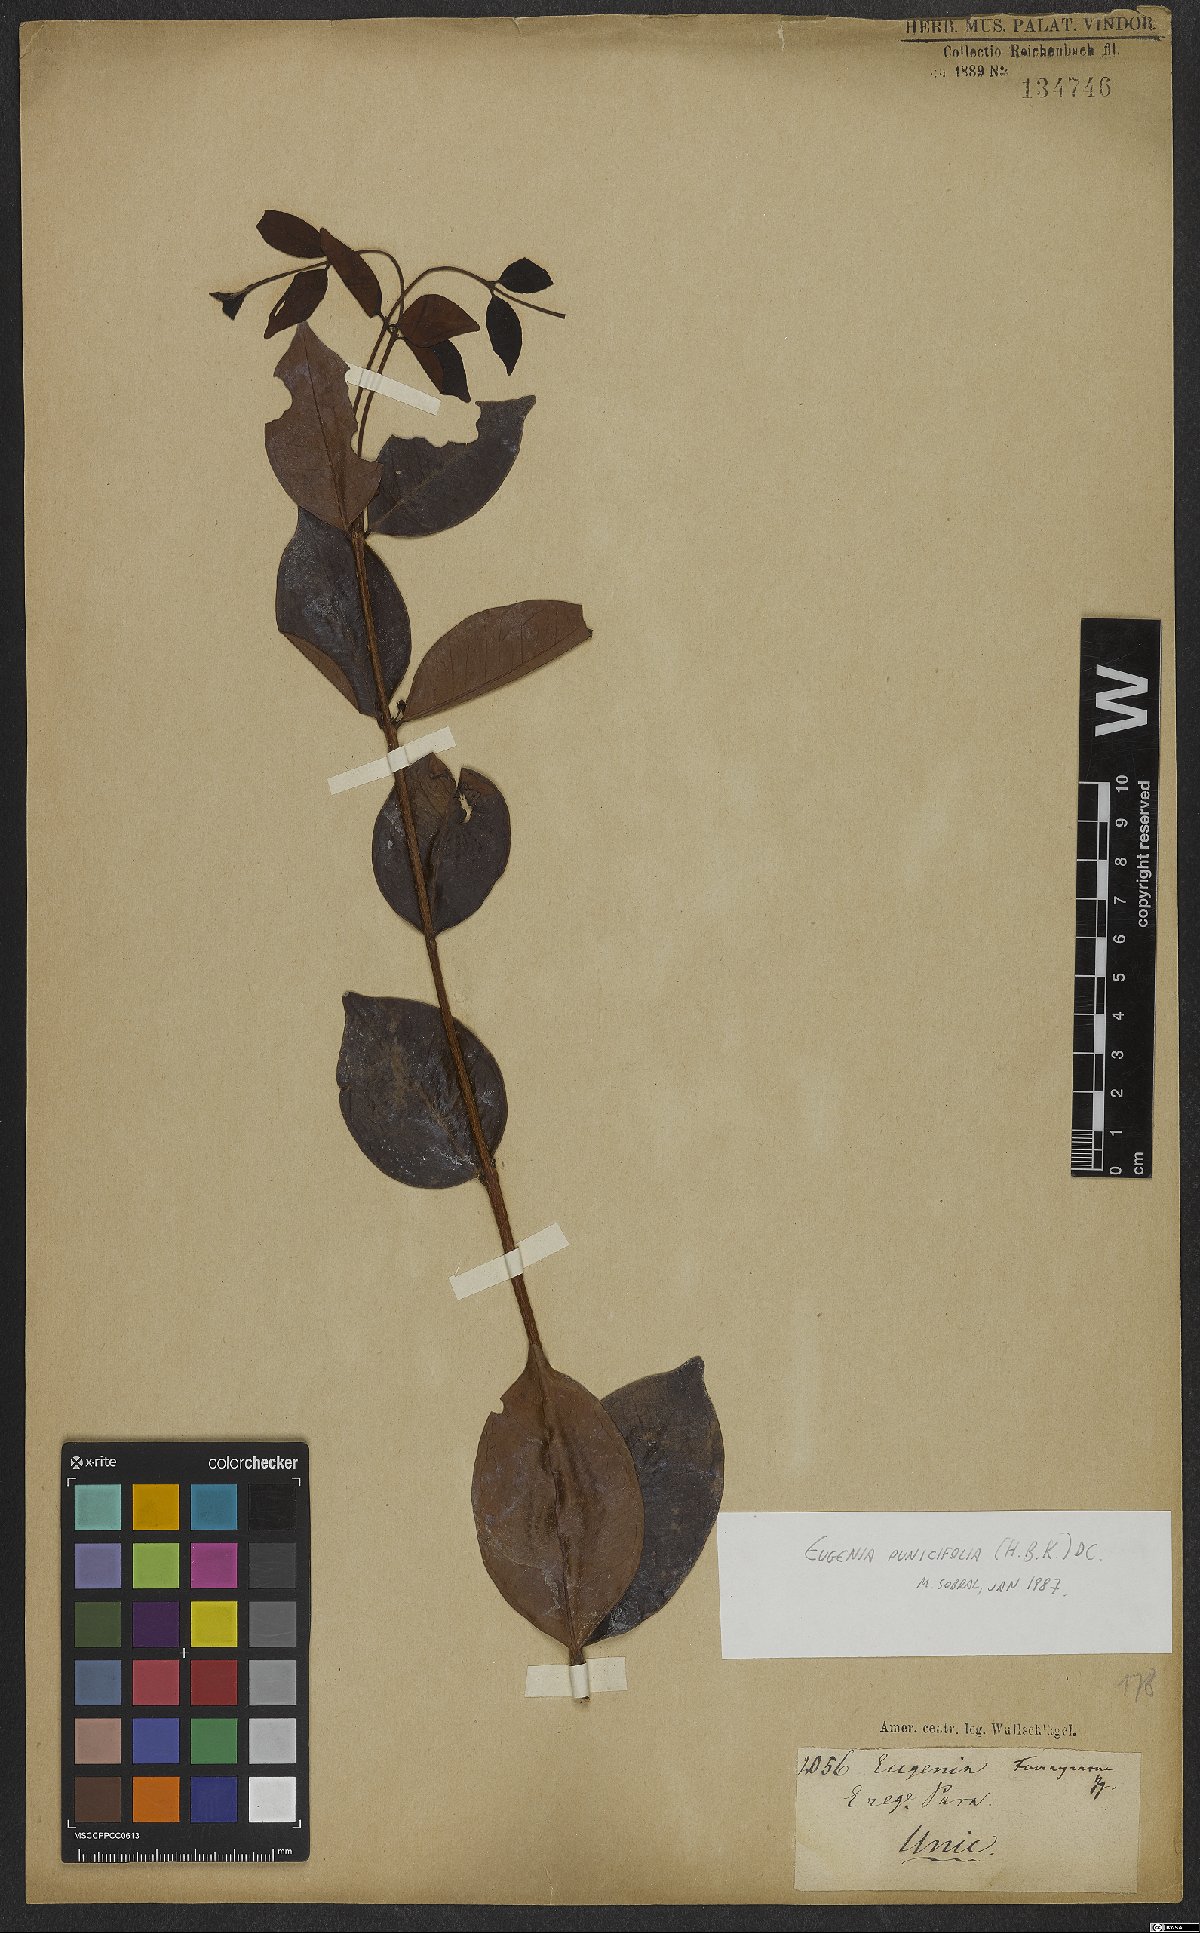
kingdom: Plantae
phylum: Tracheophyta
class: Magnoliopsida
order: Myrtales
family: Myrtaceae
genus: Eugenia
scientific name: Eugenia punicifolia
